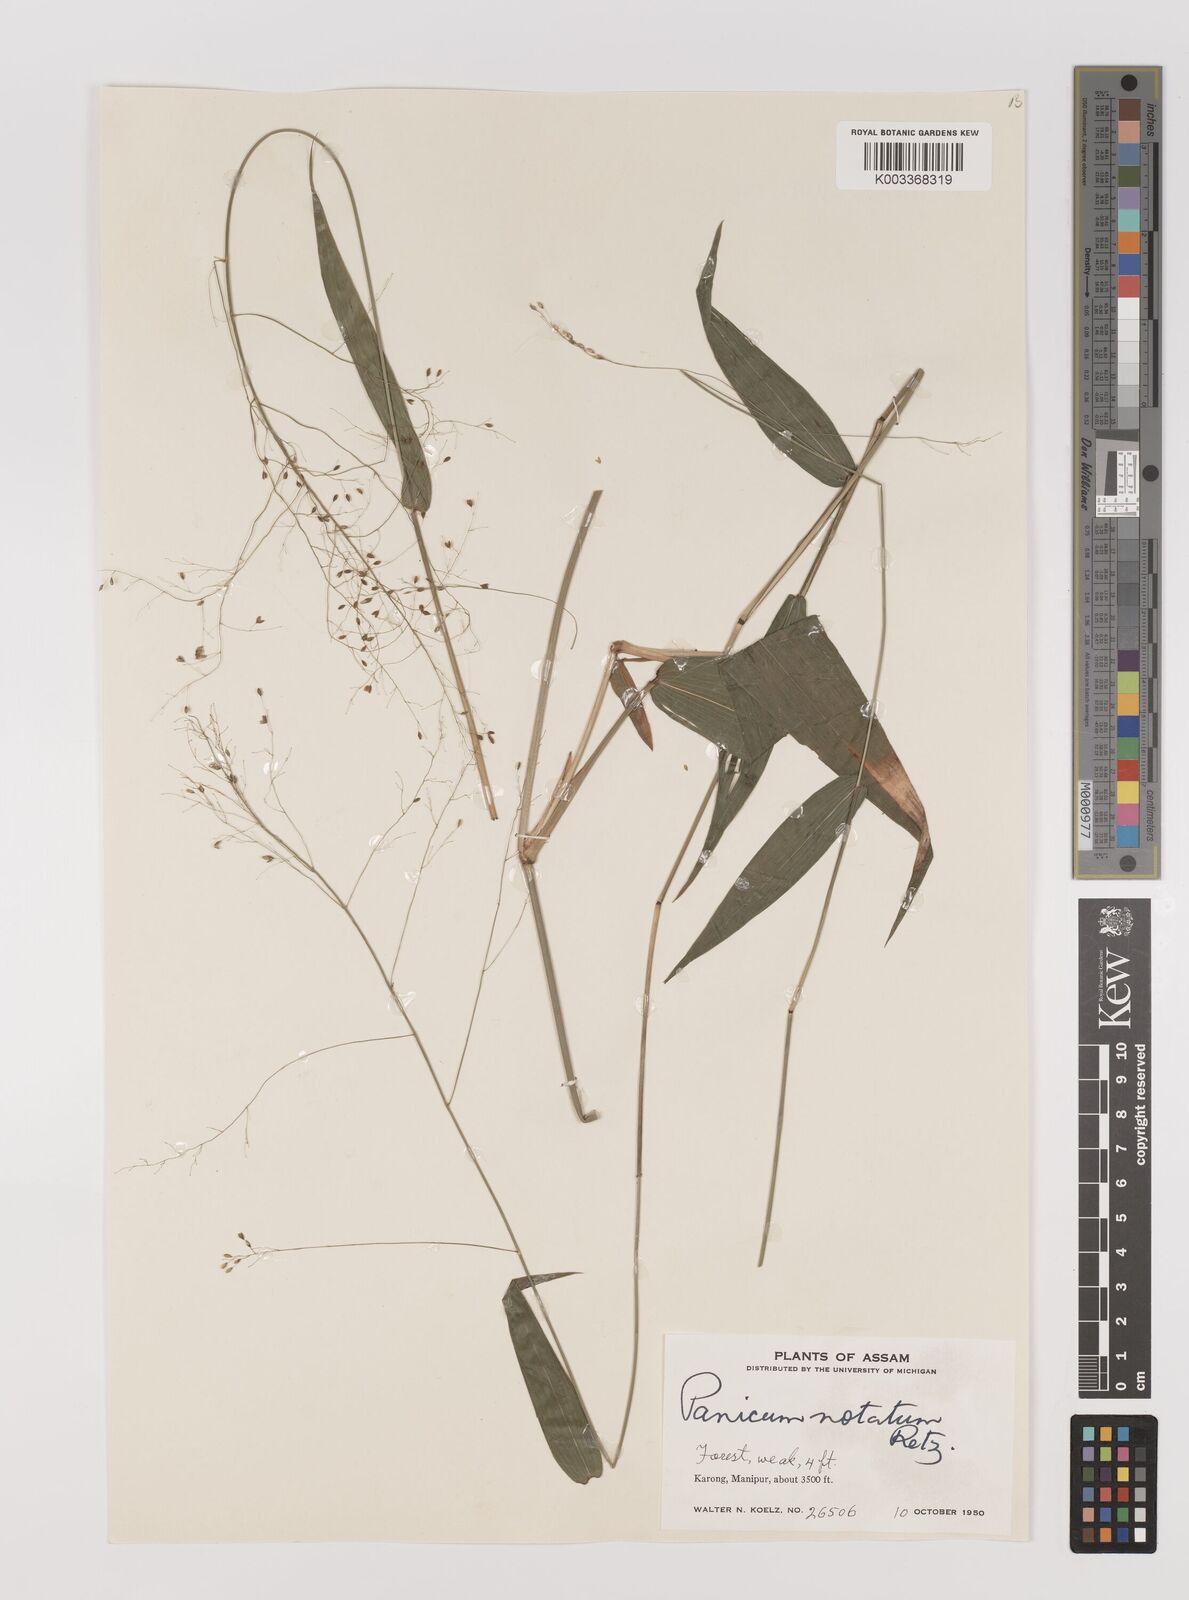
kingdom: Plantae
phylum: Tracheophyta
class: Liliopsida
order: Poales
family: Poaceae
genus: Panicum
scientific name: Panicum notatum
